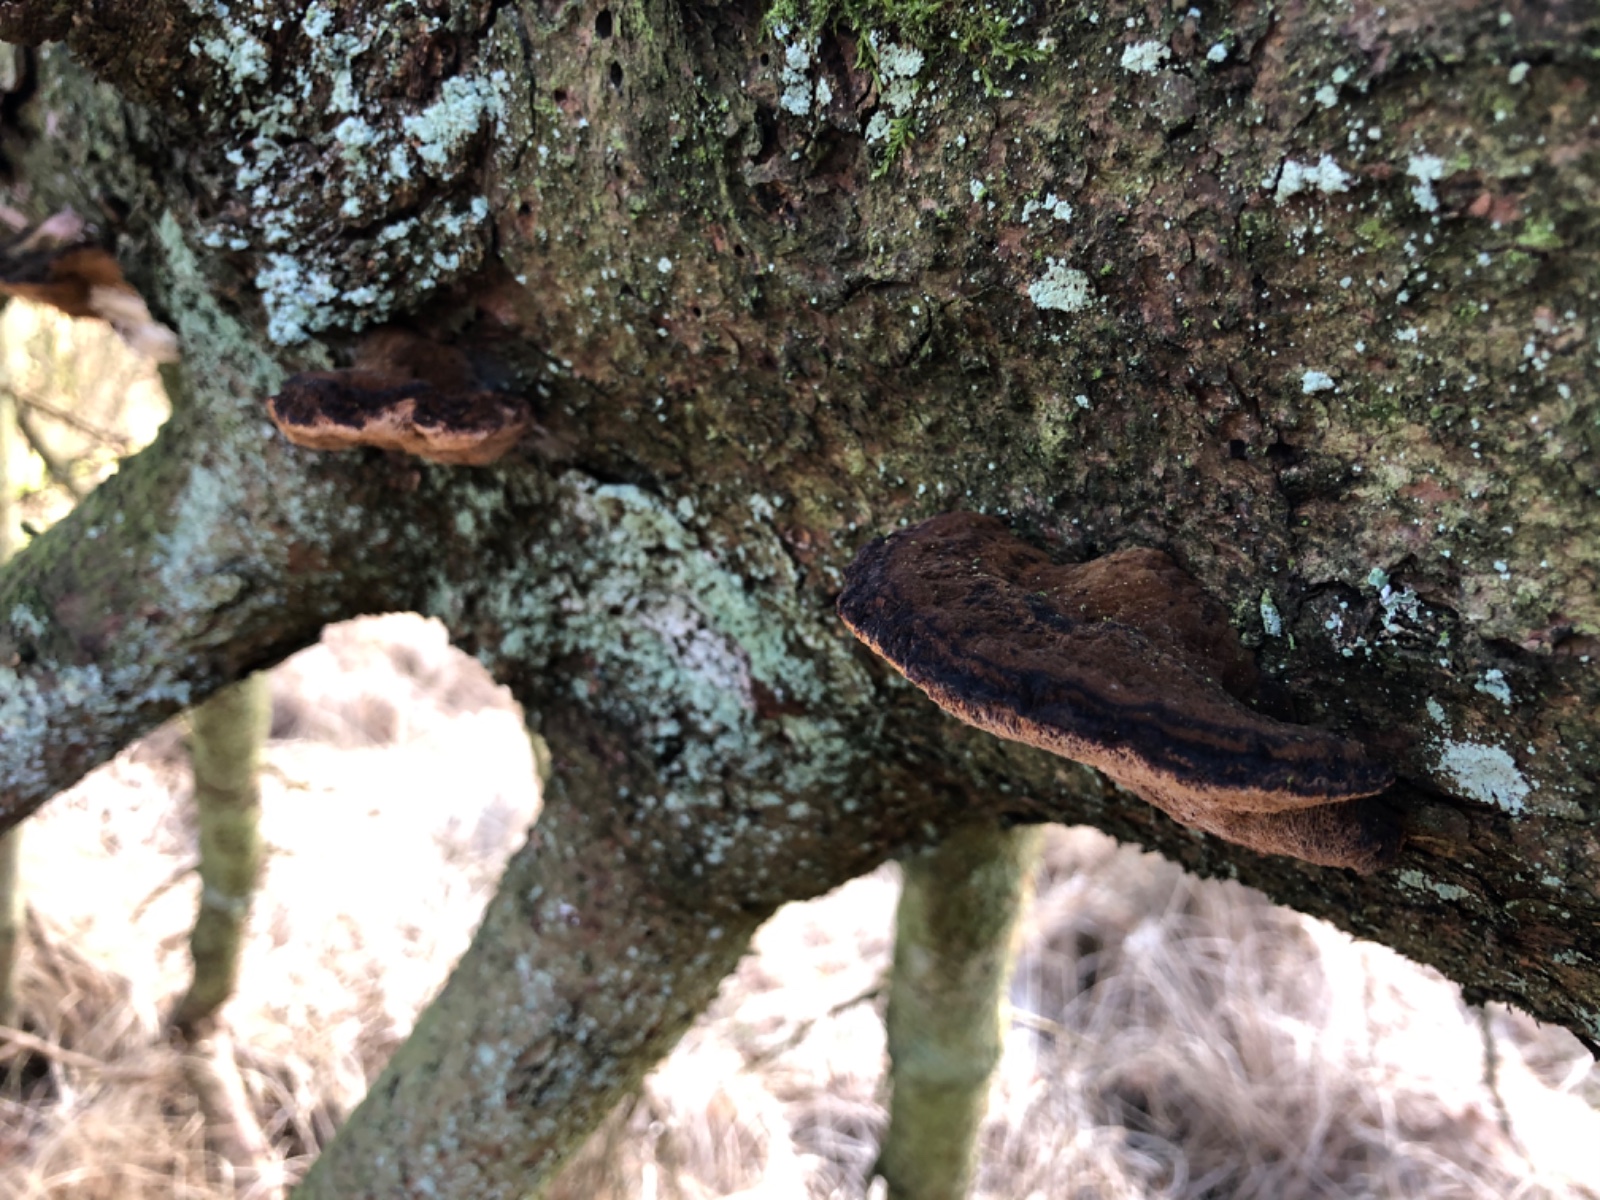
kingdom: Fungi
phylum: Basidiomycota
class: Agaricomycetes
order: Polyporales
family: Ischnodermataceae
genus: Ischnoderma
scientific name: Ischnoderma benzoinum
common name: gran-tjæreporesvamp
